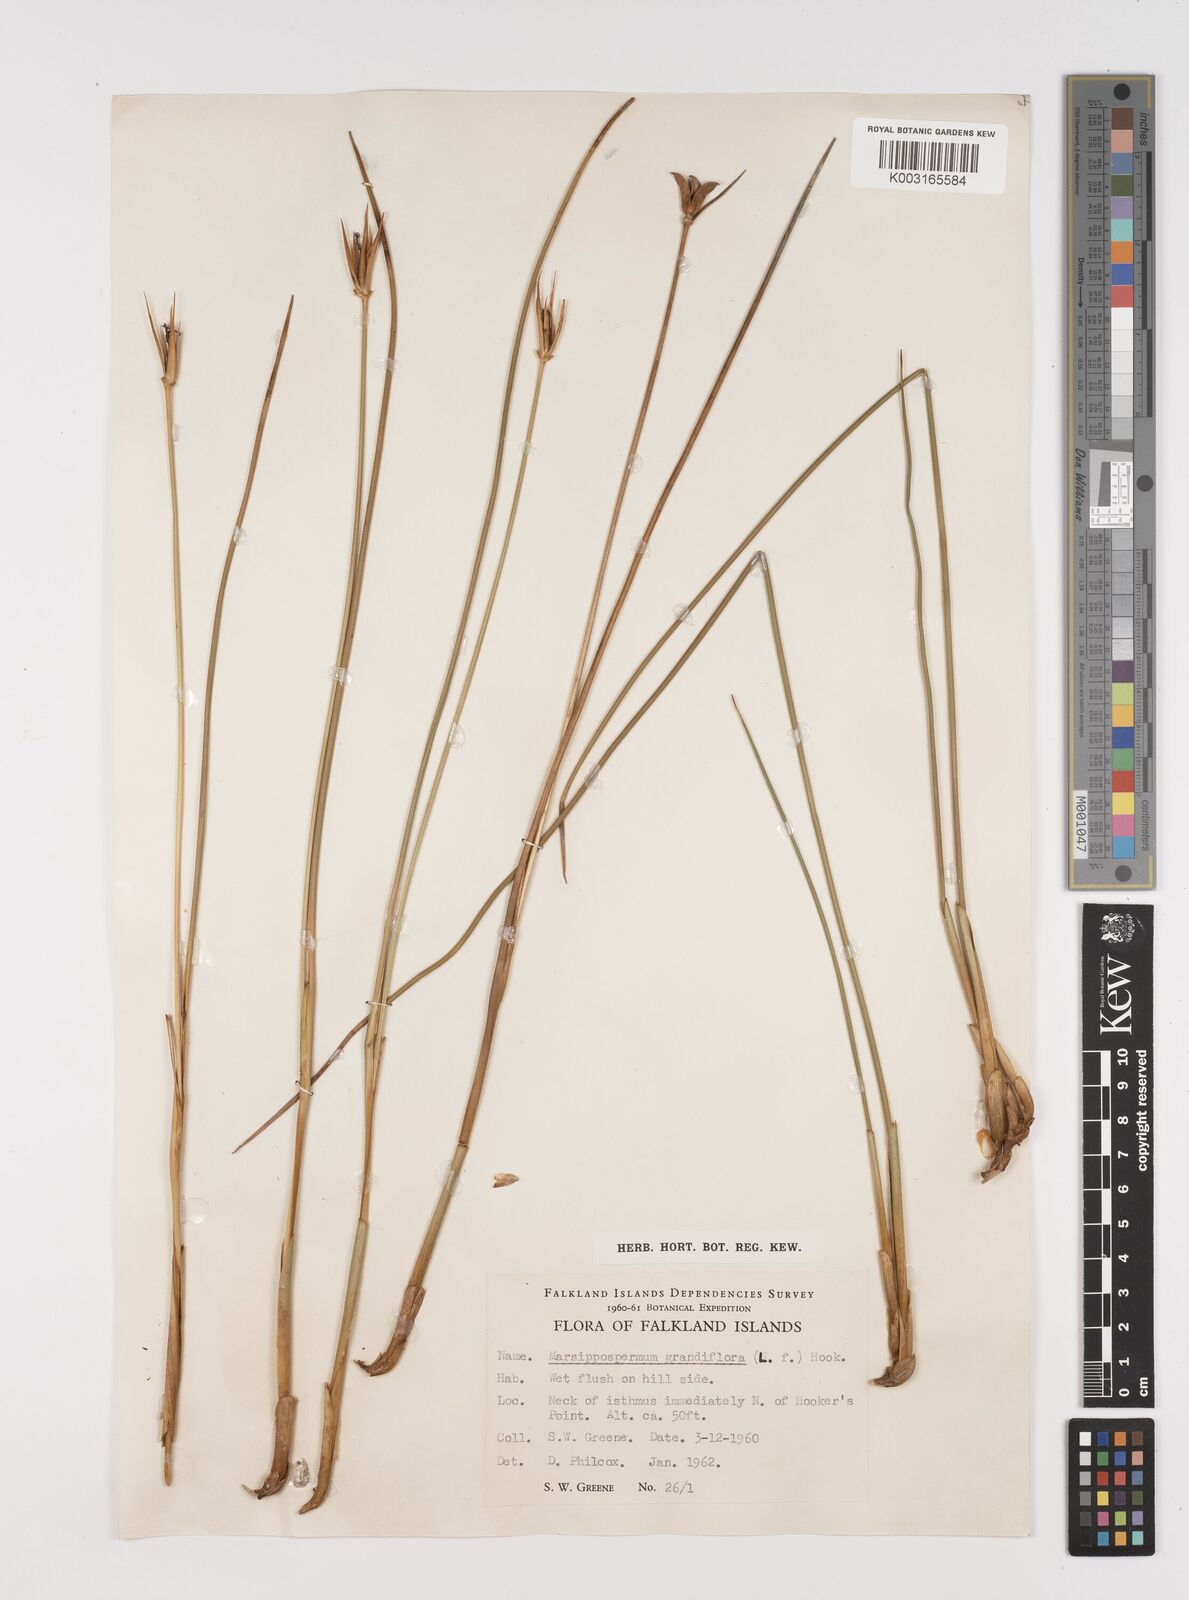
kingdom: Plantae
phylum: Tracheophyta
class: Liliopsida
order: Poales
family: Juncaceae
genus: Marsippospermum
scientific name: Marsippospermum grandiflorum
